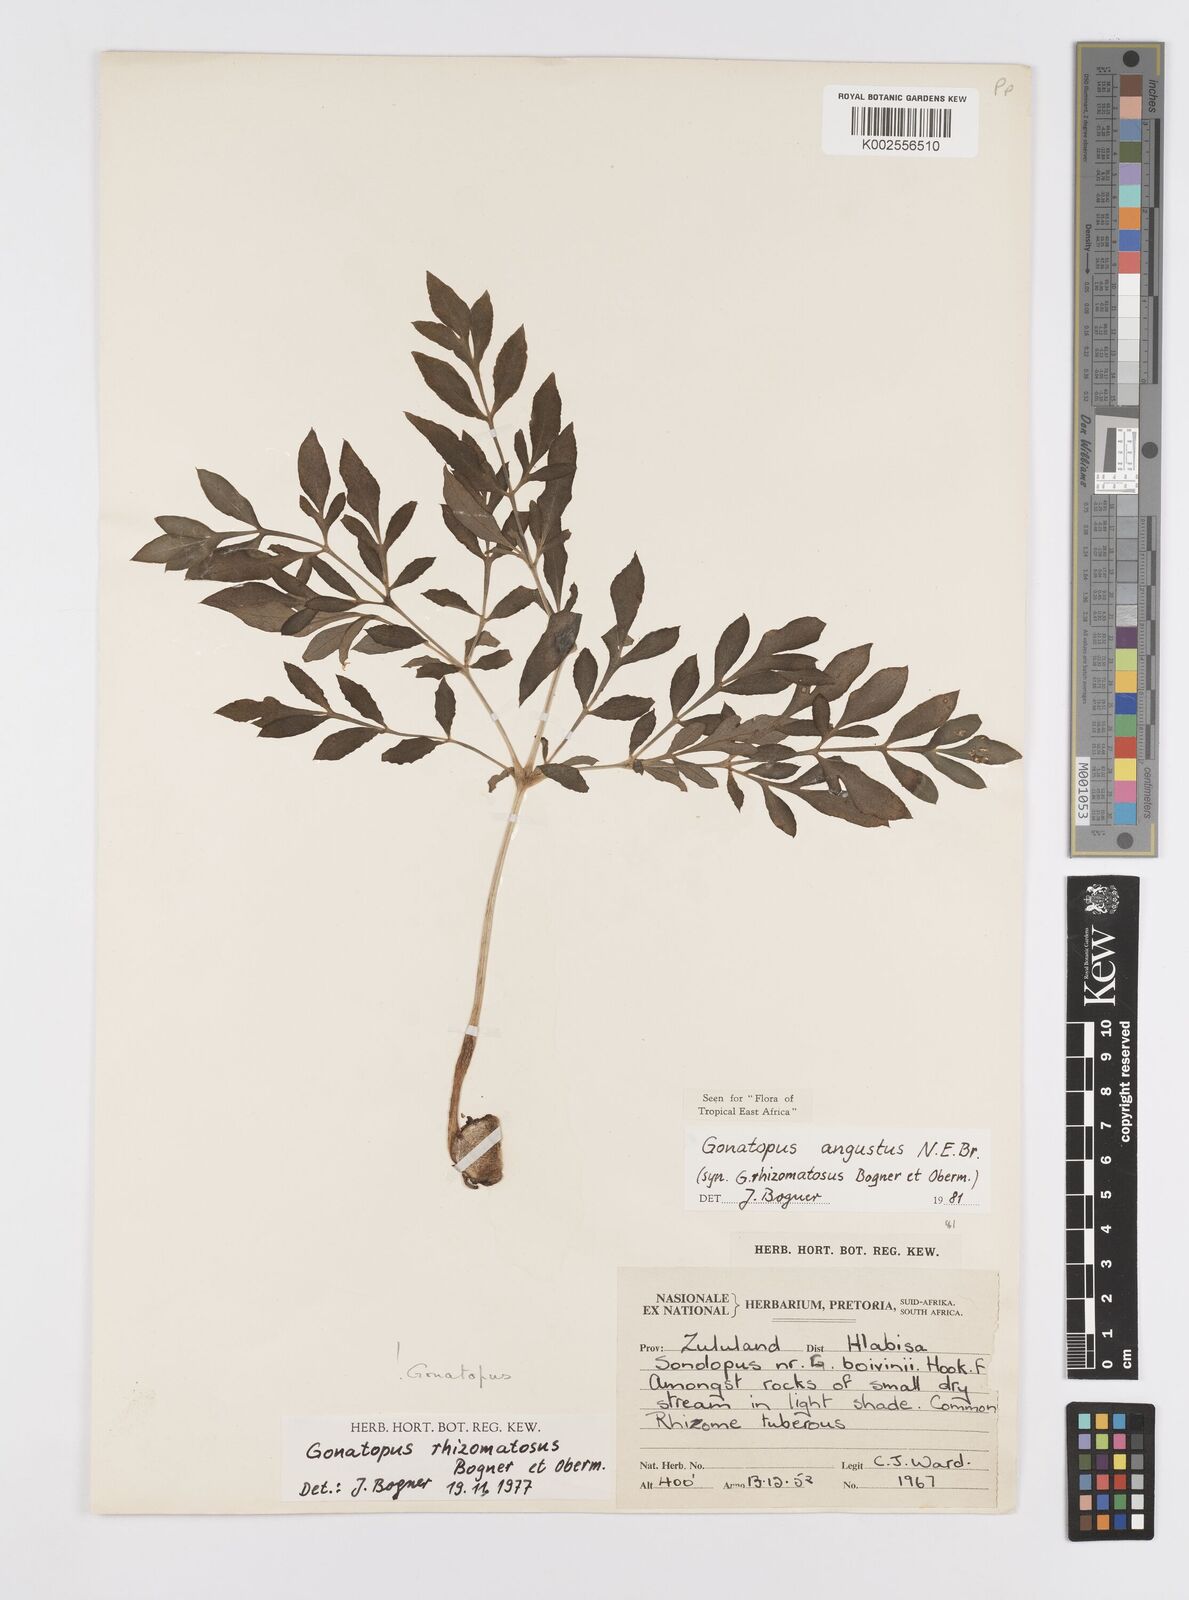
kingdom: Plantae
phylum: Tracheophyta
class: Liliopsida
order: Alismatales
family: Araceae
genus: Gonatopus
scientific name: Gonatopus angustus
